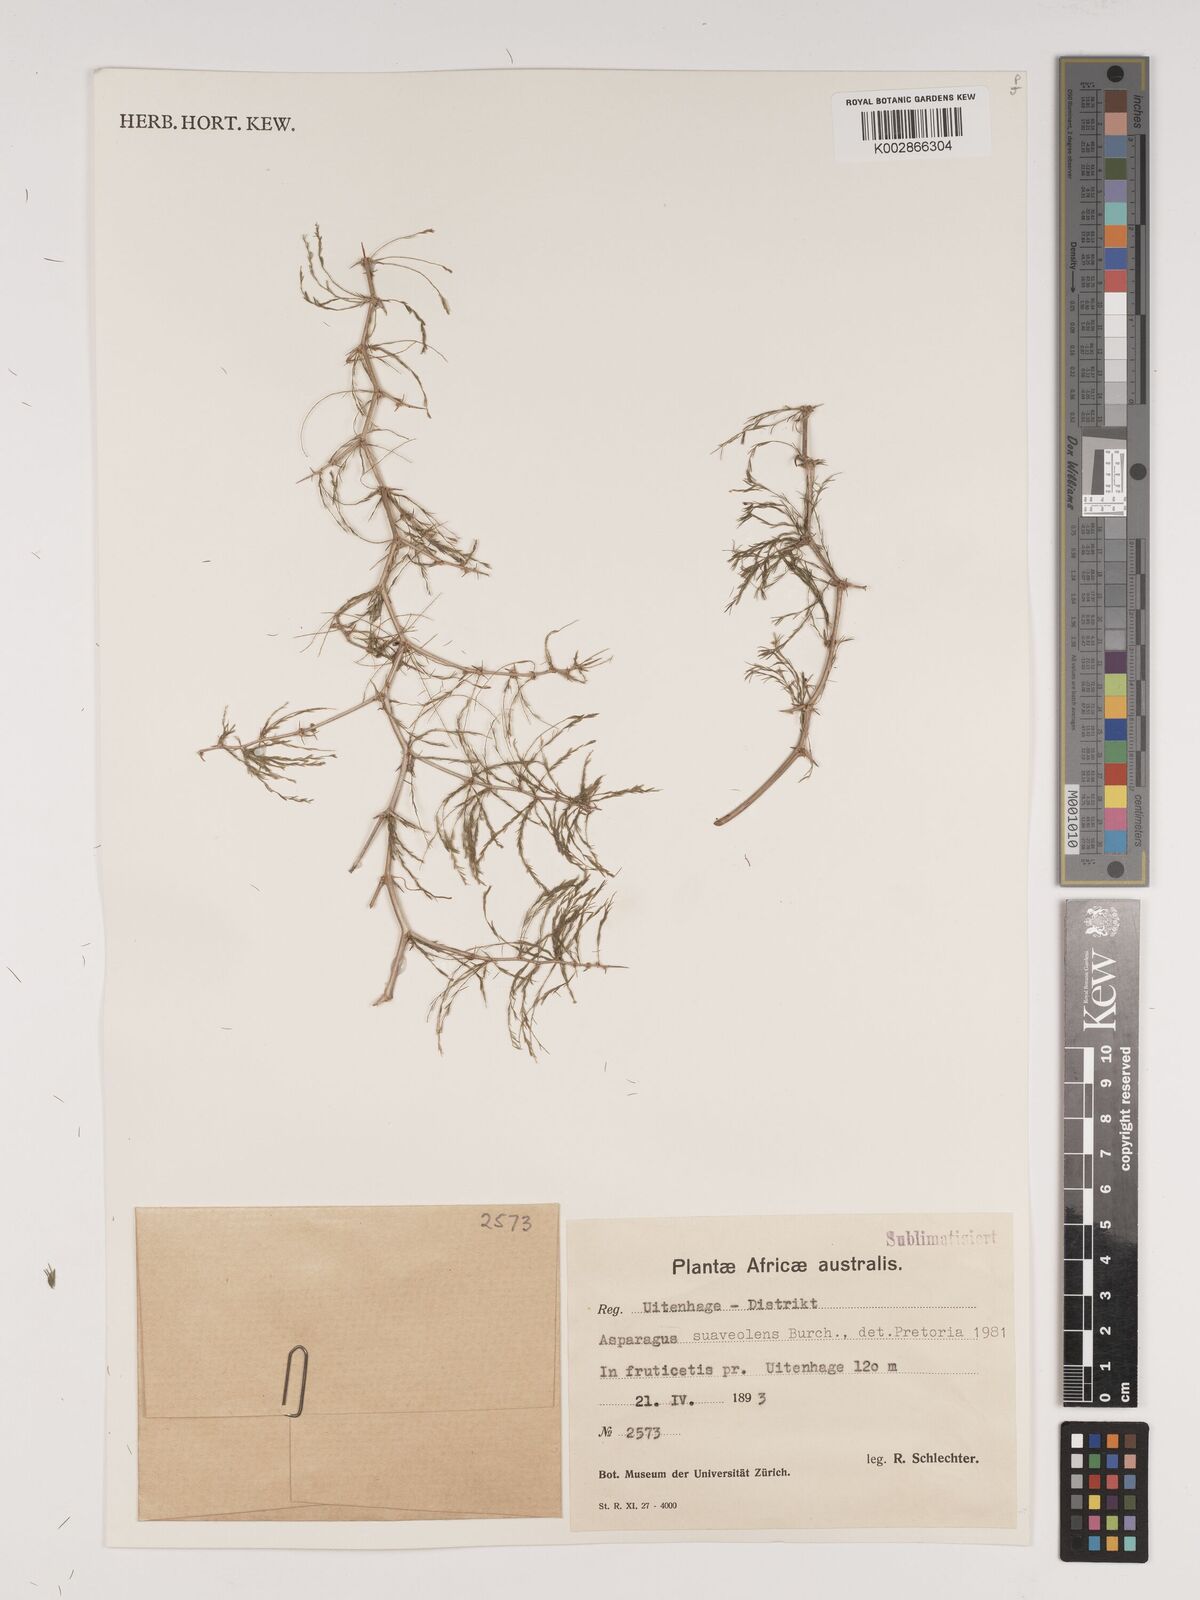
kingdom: Plantae
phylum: Tracheophyta
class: Liliopsida
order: Asparagales
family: Asparagaceae
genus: Asparagus
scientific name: Asparagus suaveolens
